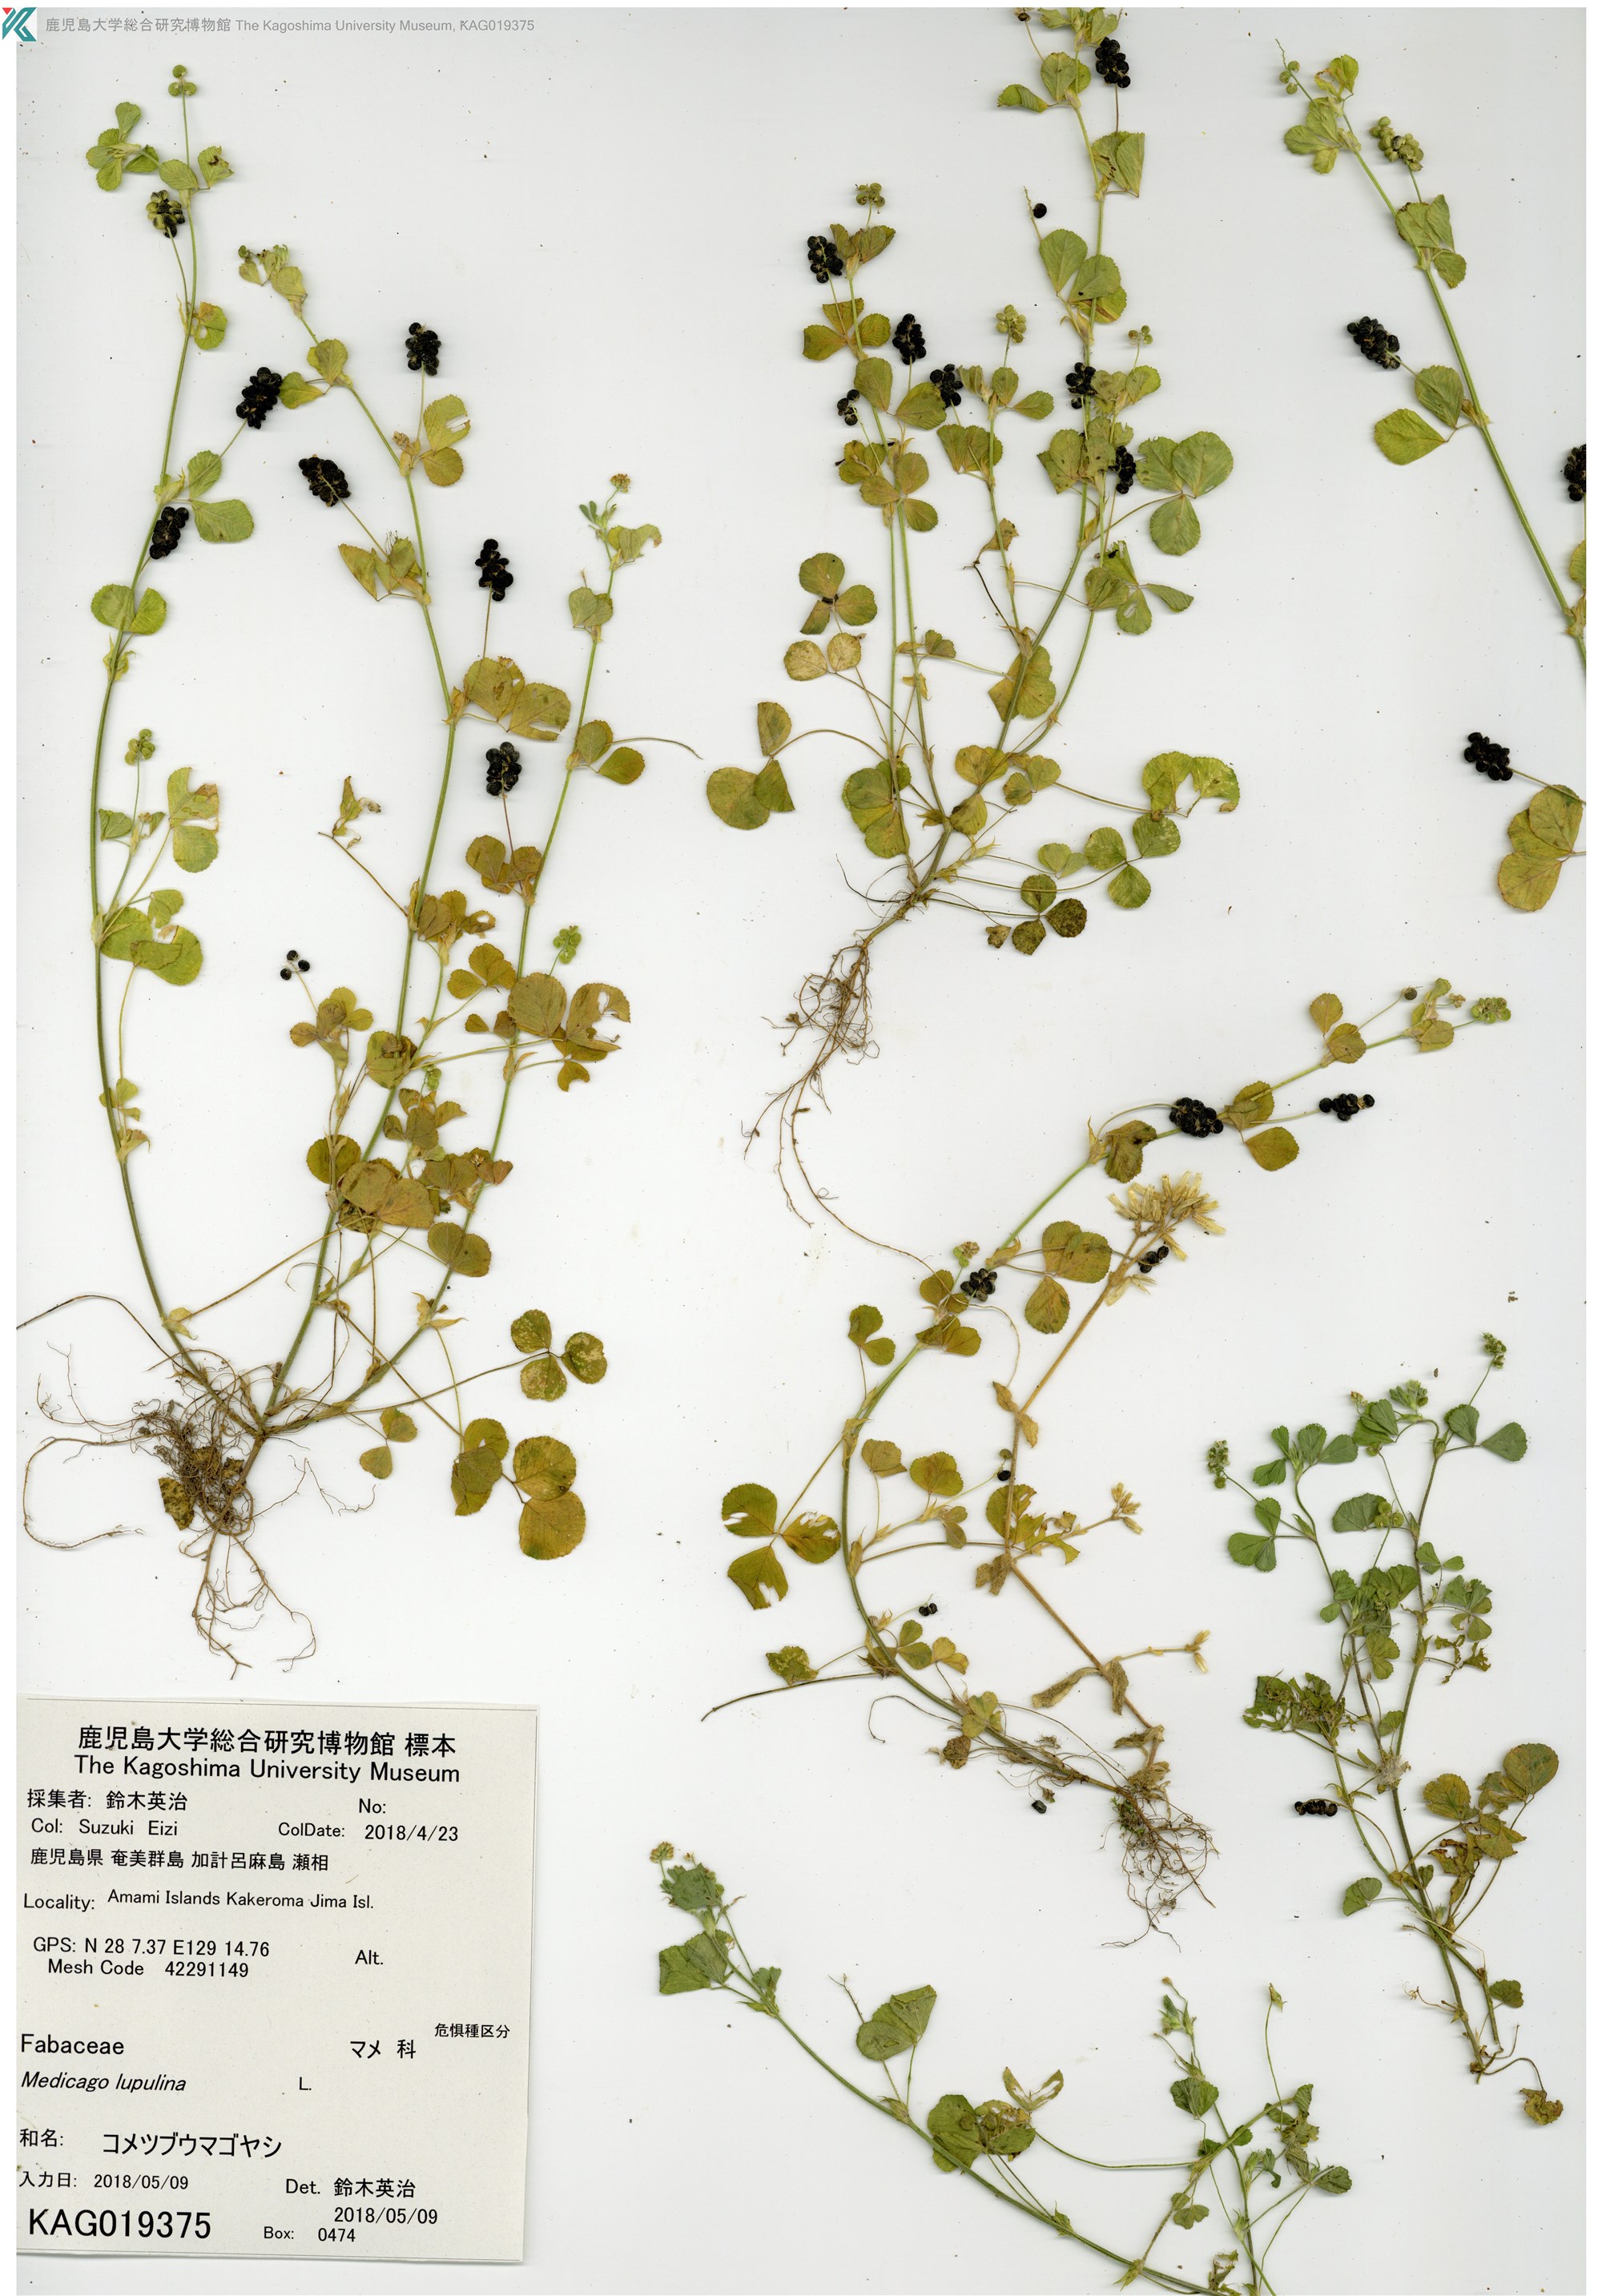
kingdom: Plantae
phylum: Tracheophyta
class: Magnoliopsida
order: Fabales
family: Fabaceae
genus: Medicago
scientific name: Medicago lupulina
